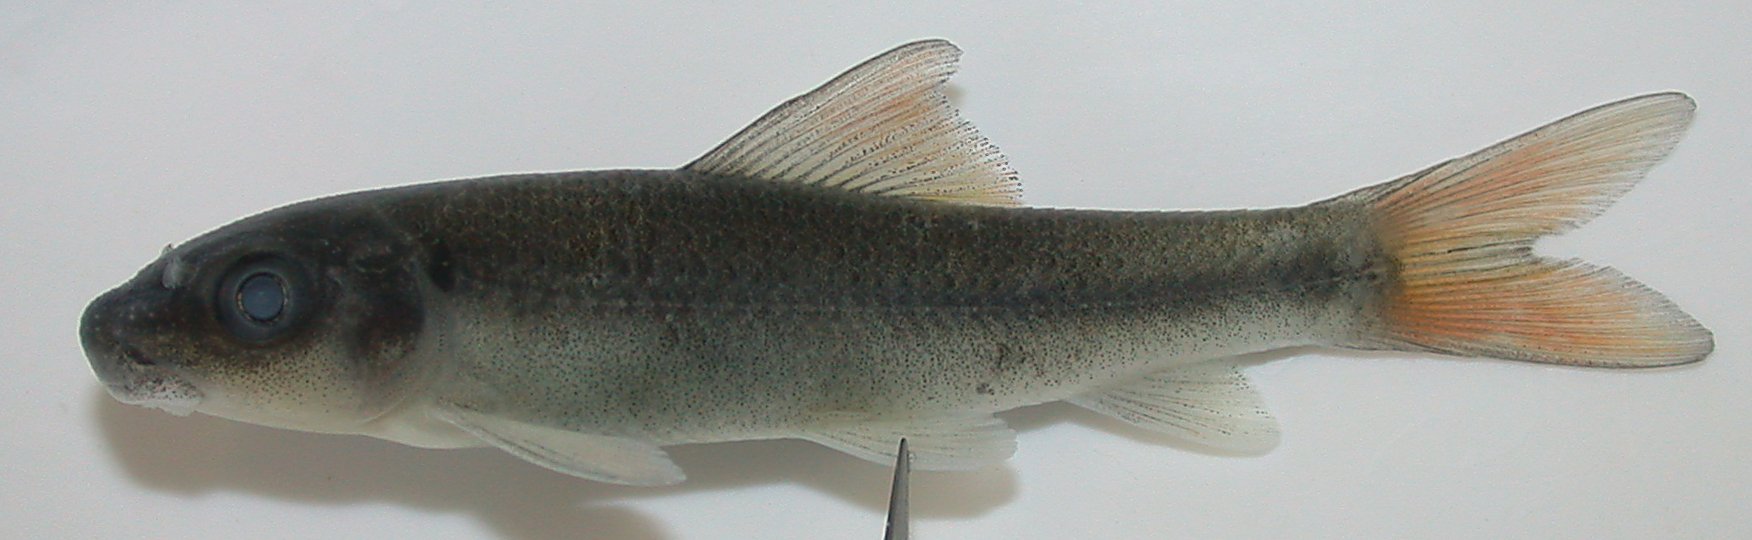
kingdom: Animalia
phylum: Chordata
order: Cypriniformes
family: Cyprinidae
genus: Labeo
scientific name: Labeo cylindricus
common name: Redeye labeo
